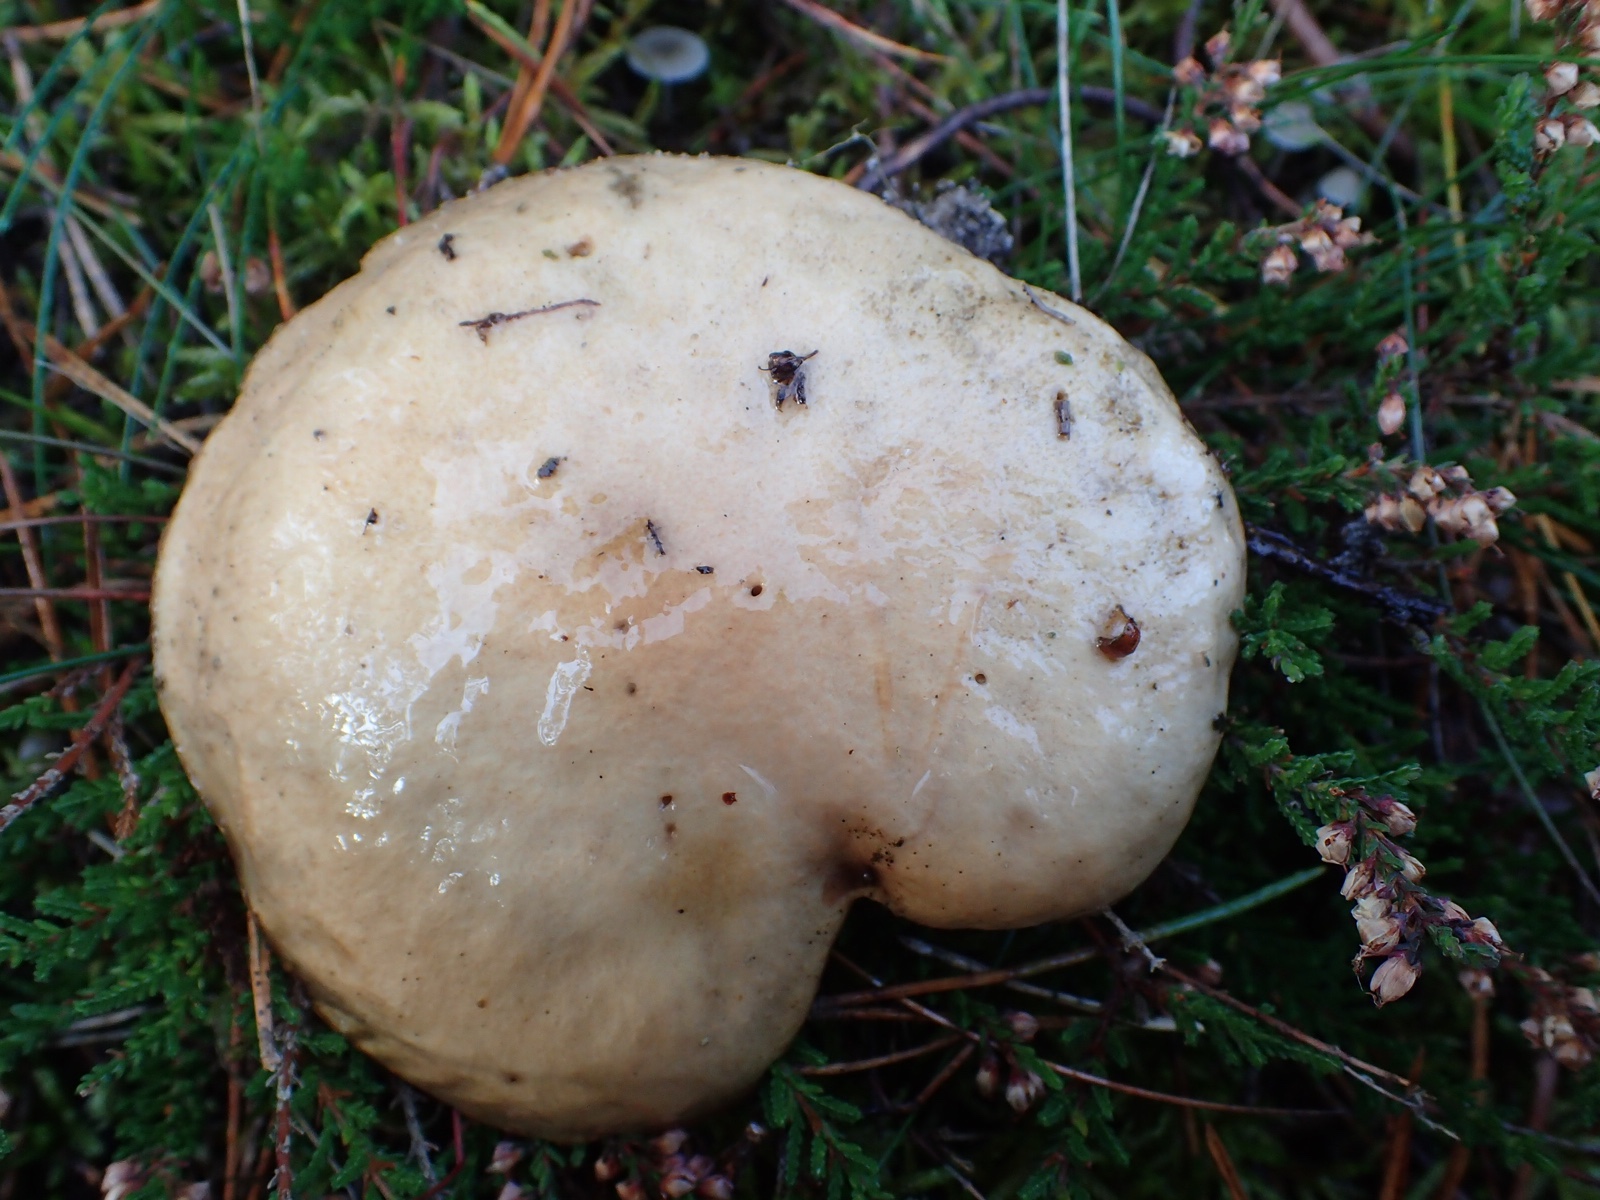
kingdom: Fungi
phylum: Basidiomycota
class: Agaricomycetes
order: Boletales
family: Suillaceae
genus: Suillus
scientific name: Suillus bovinus
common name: grovporet slimrørhat
